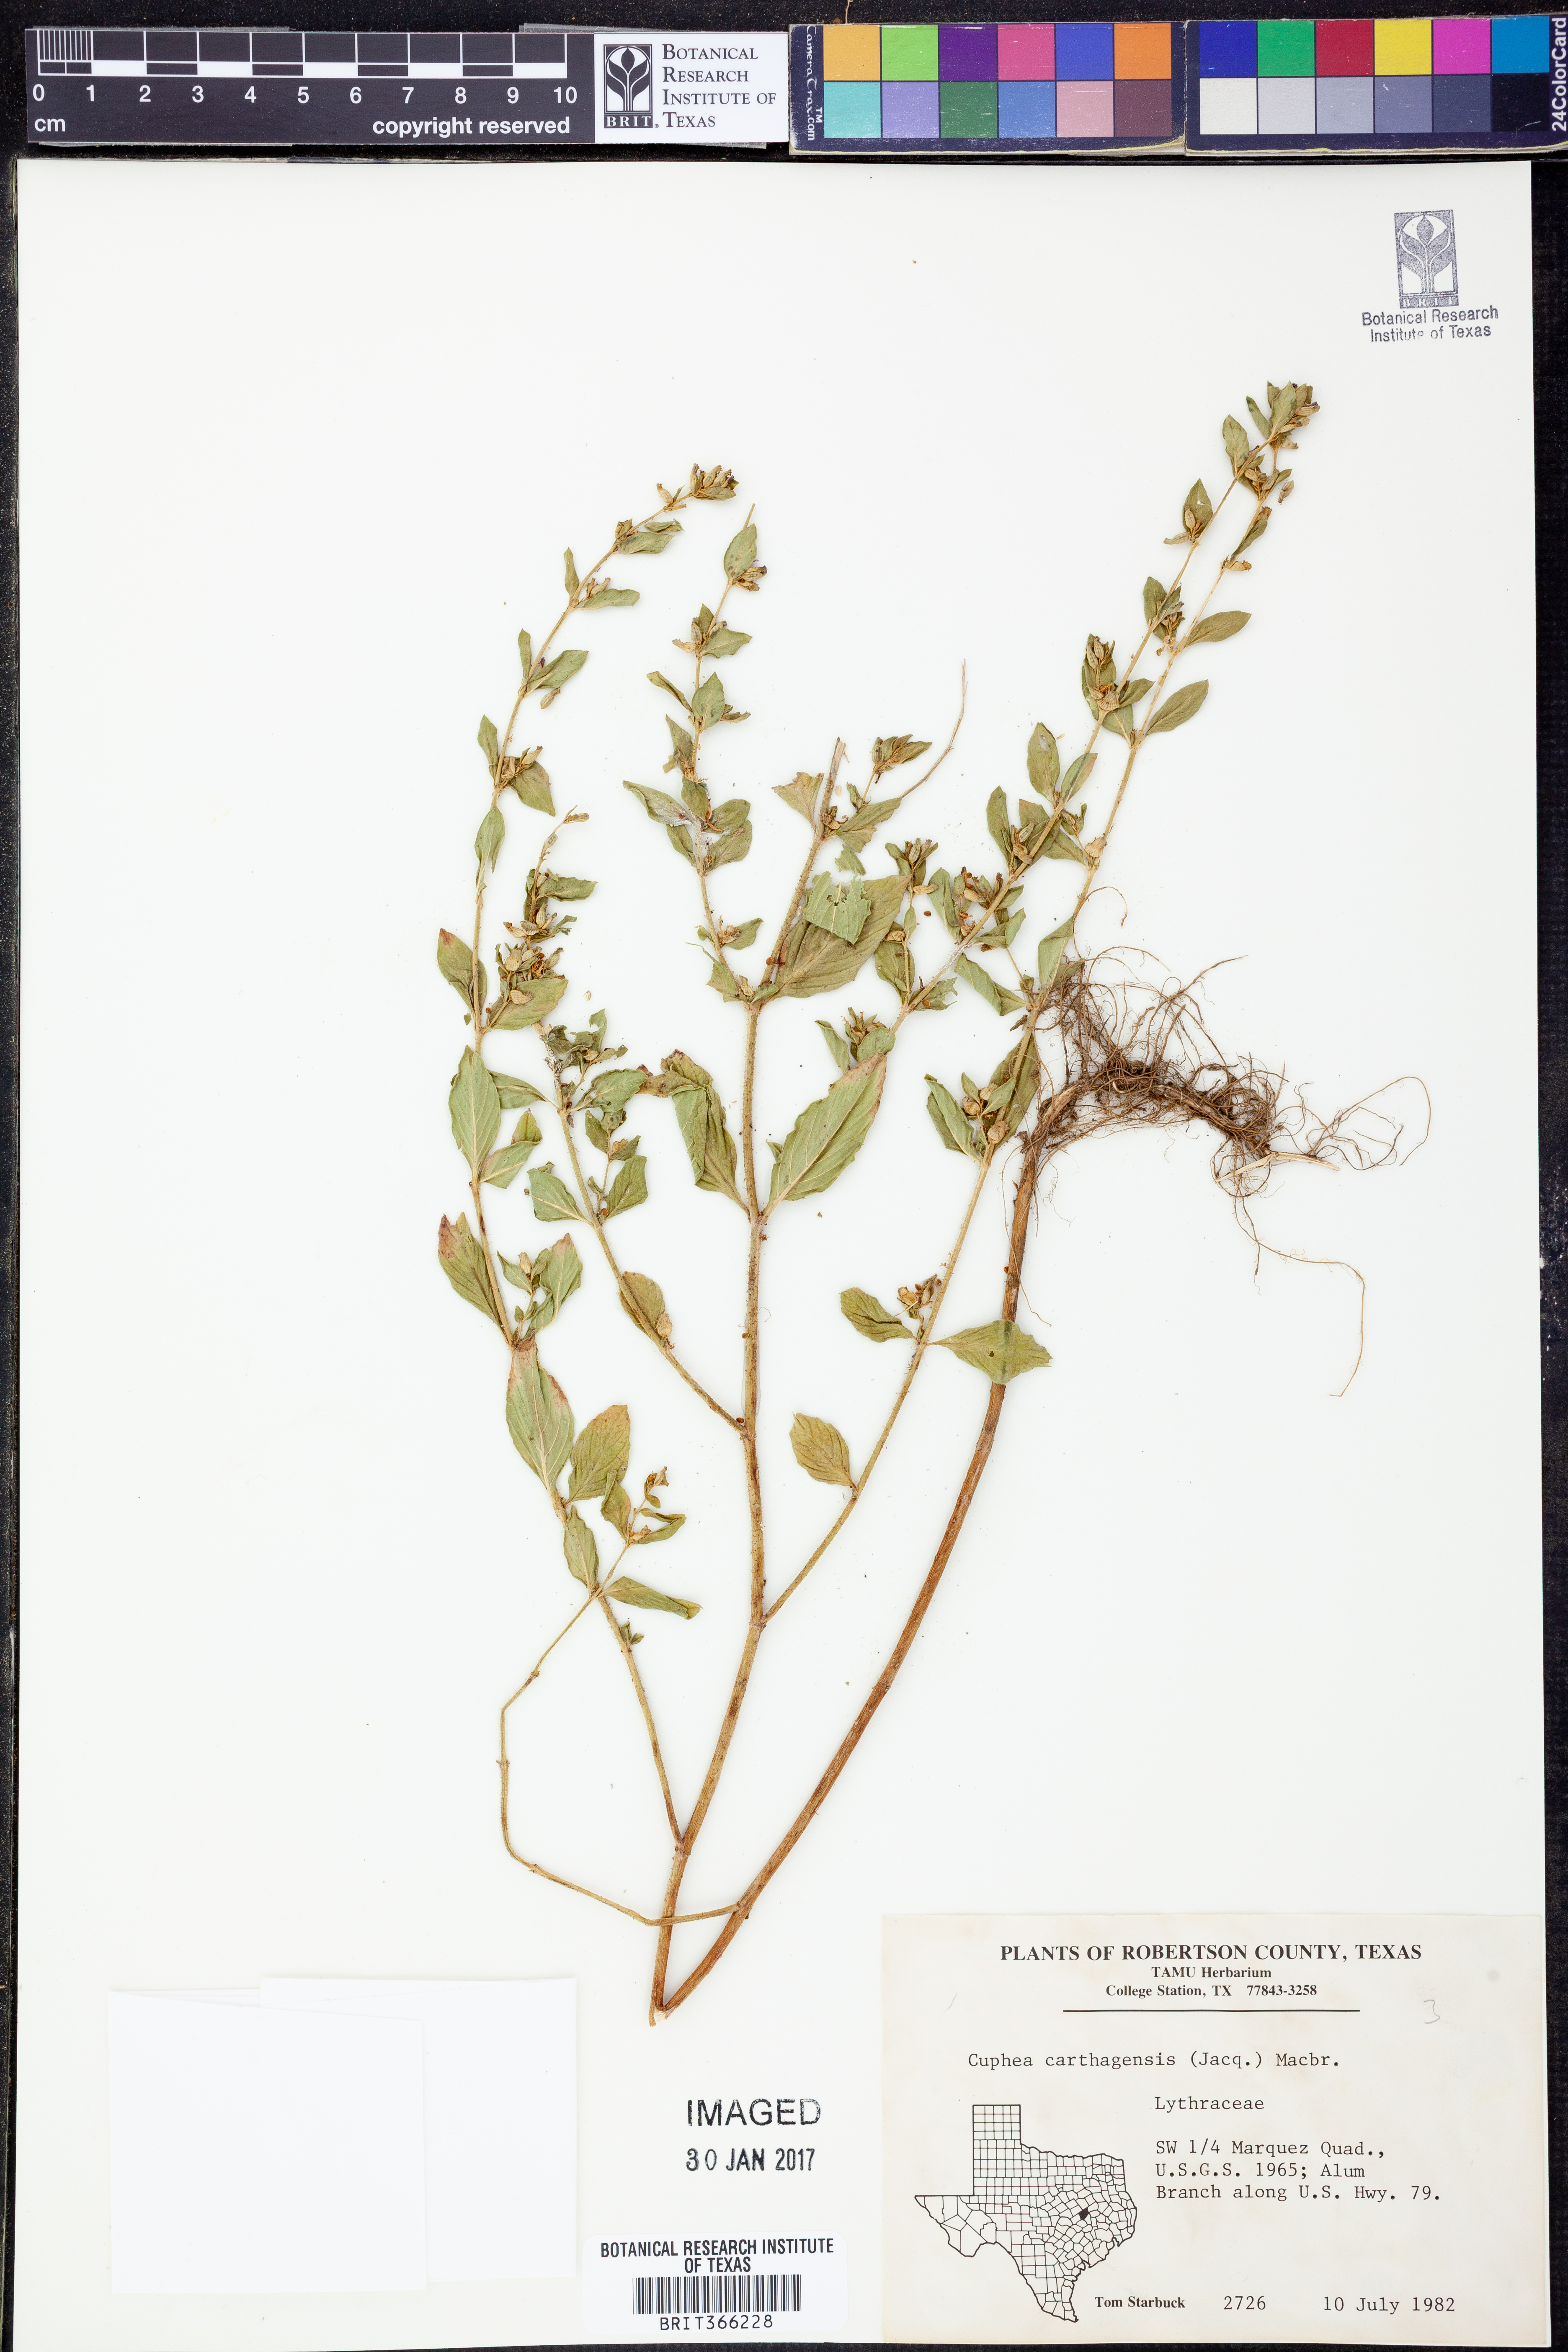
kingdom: Plantae
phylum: Tracheophyta
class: Magnoliopsida
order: Myrtales
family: Lythraceae
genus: Cuphea
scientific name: Cuphea carthagenensis
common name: Colombian waxweed
